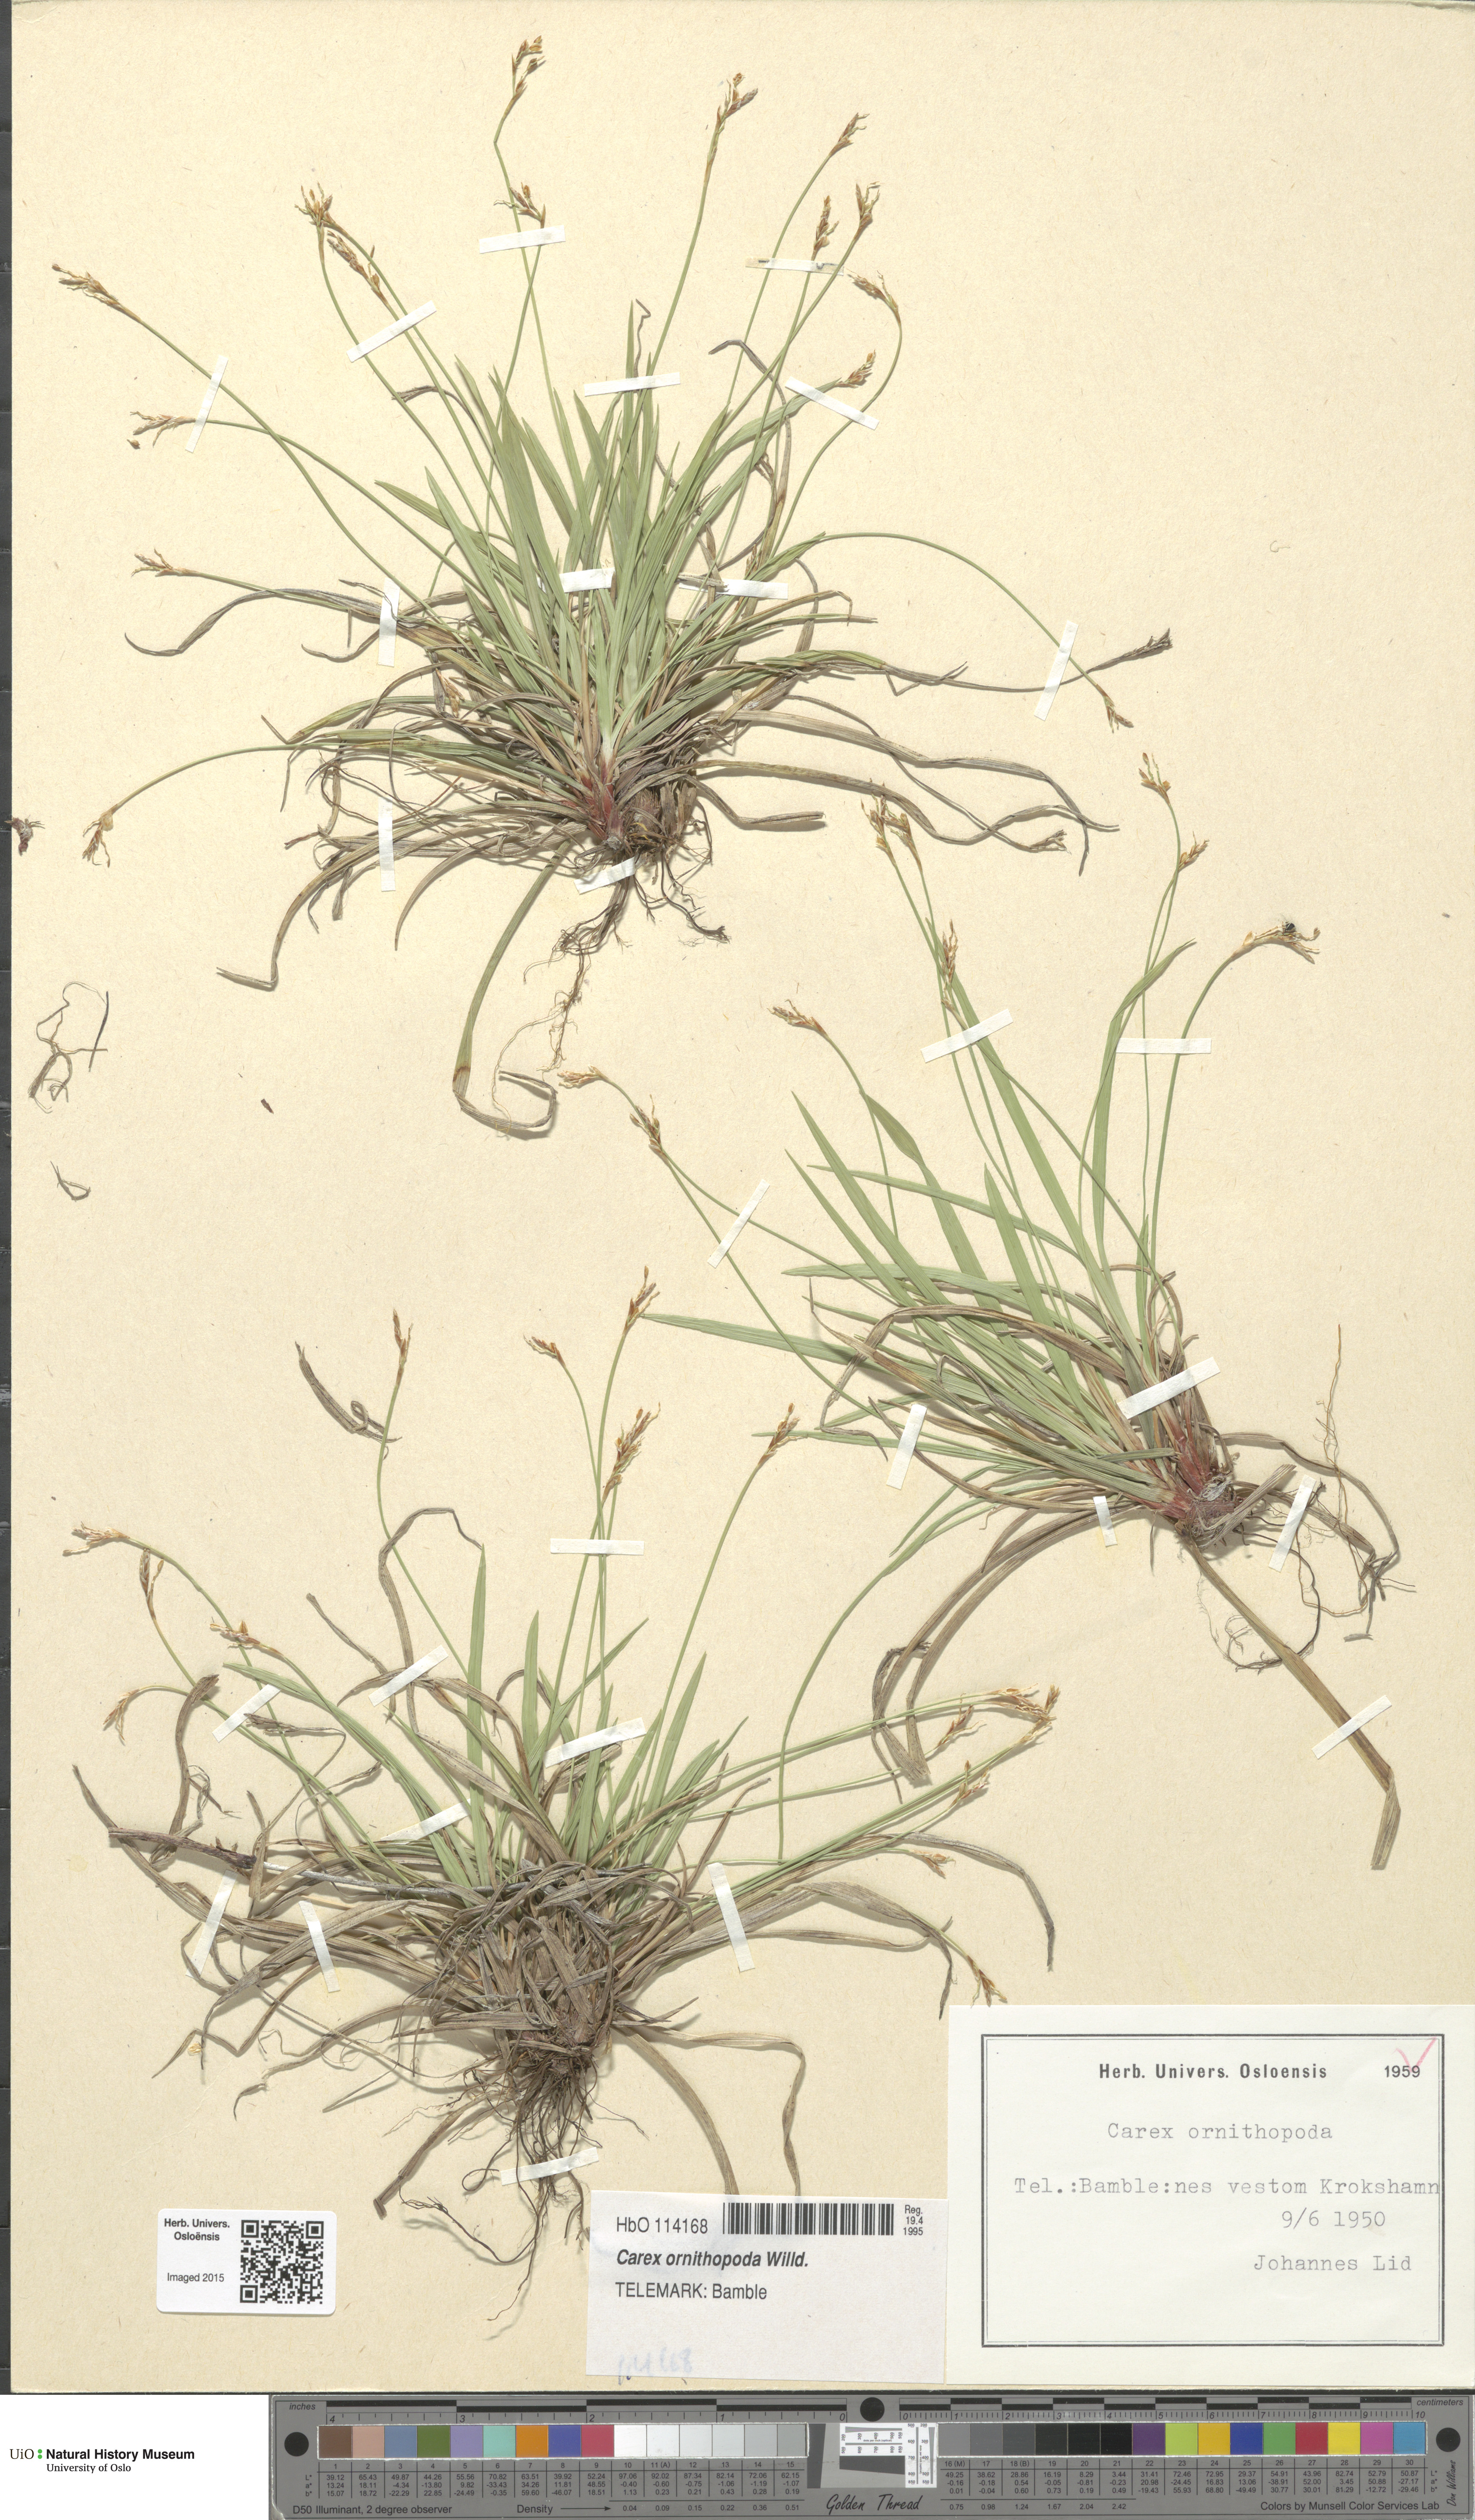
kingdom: Plantae
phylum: Tracheophyta
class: Liliopsida
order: Poales
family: Cyperaceae
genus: Carex
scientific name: Carex ornithopoda
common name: Bird's-foot sedge
